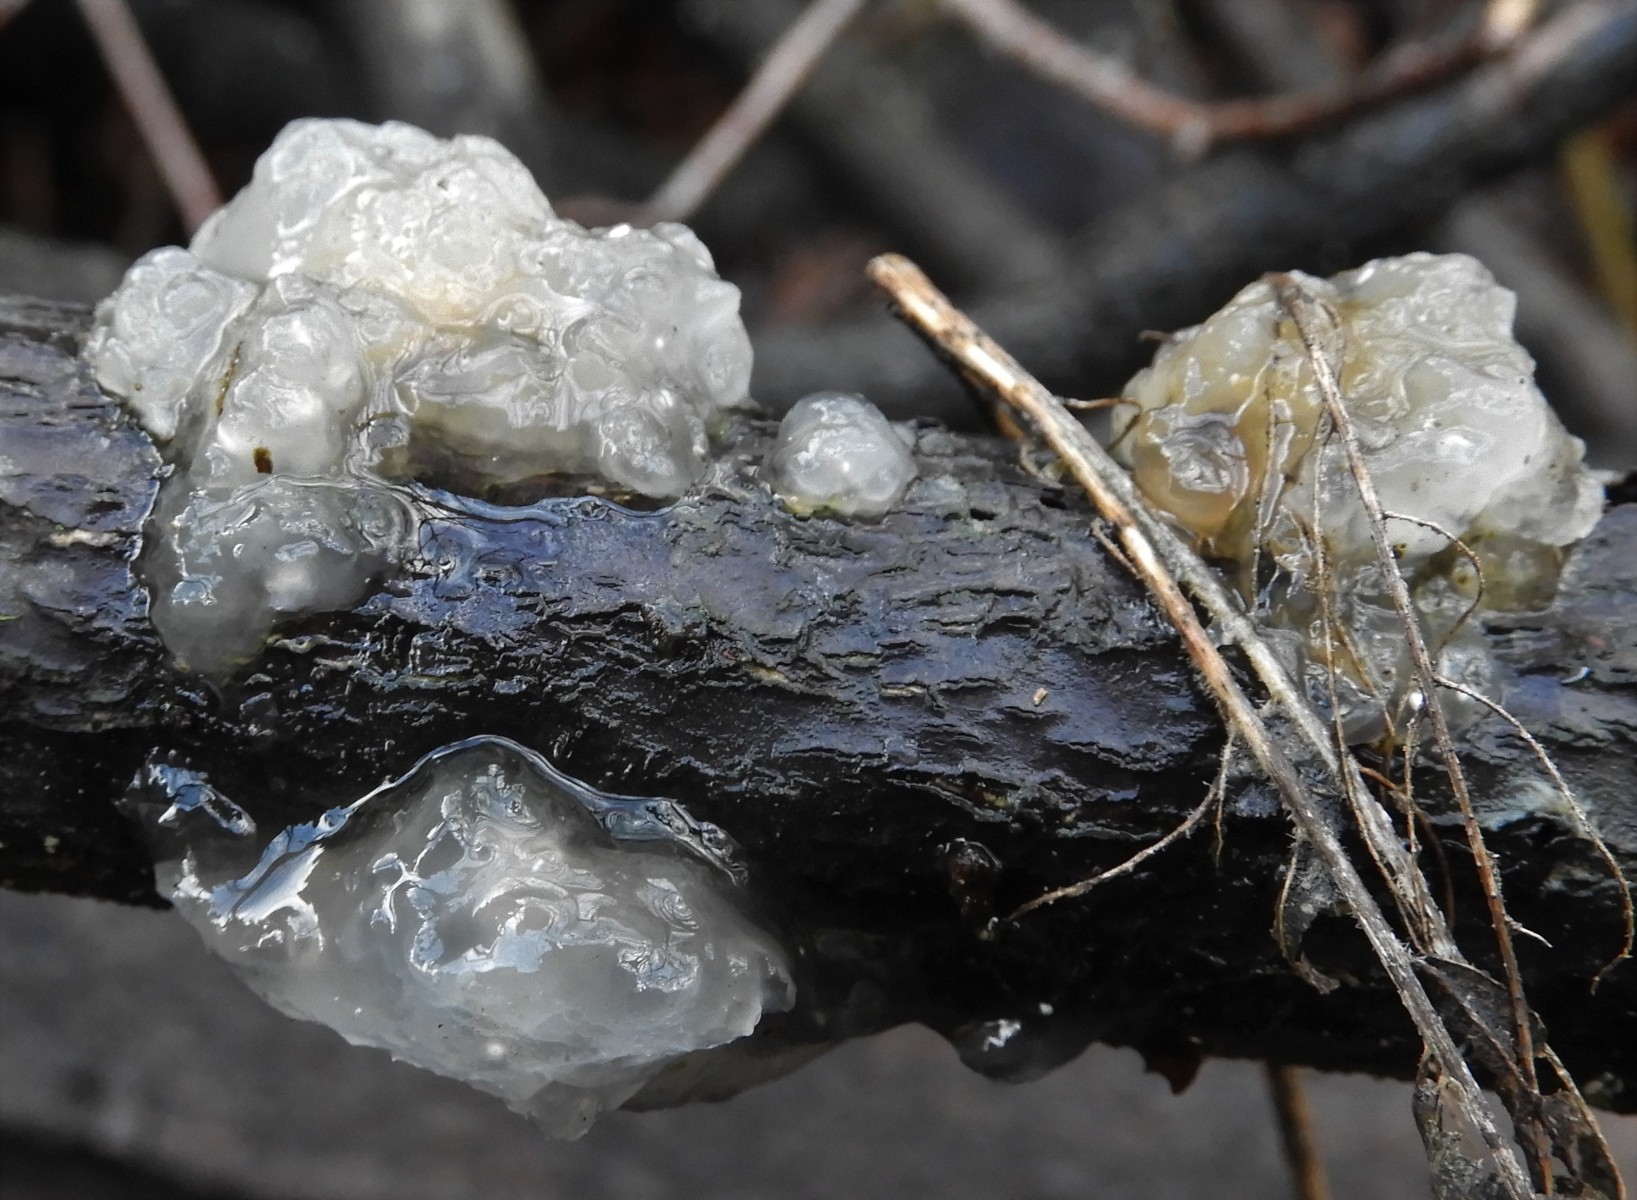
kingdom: Fungi
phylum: Basidiomycota
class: Agaricomycetes
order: Auriculariales
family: Hyaloriaceae
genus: Myxarium
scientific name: Myxarium nucleatum
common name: klar bævretop
